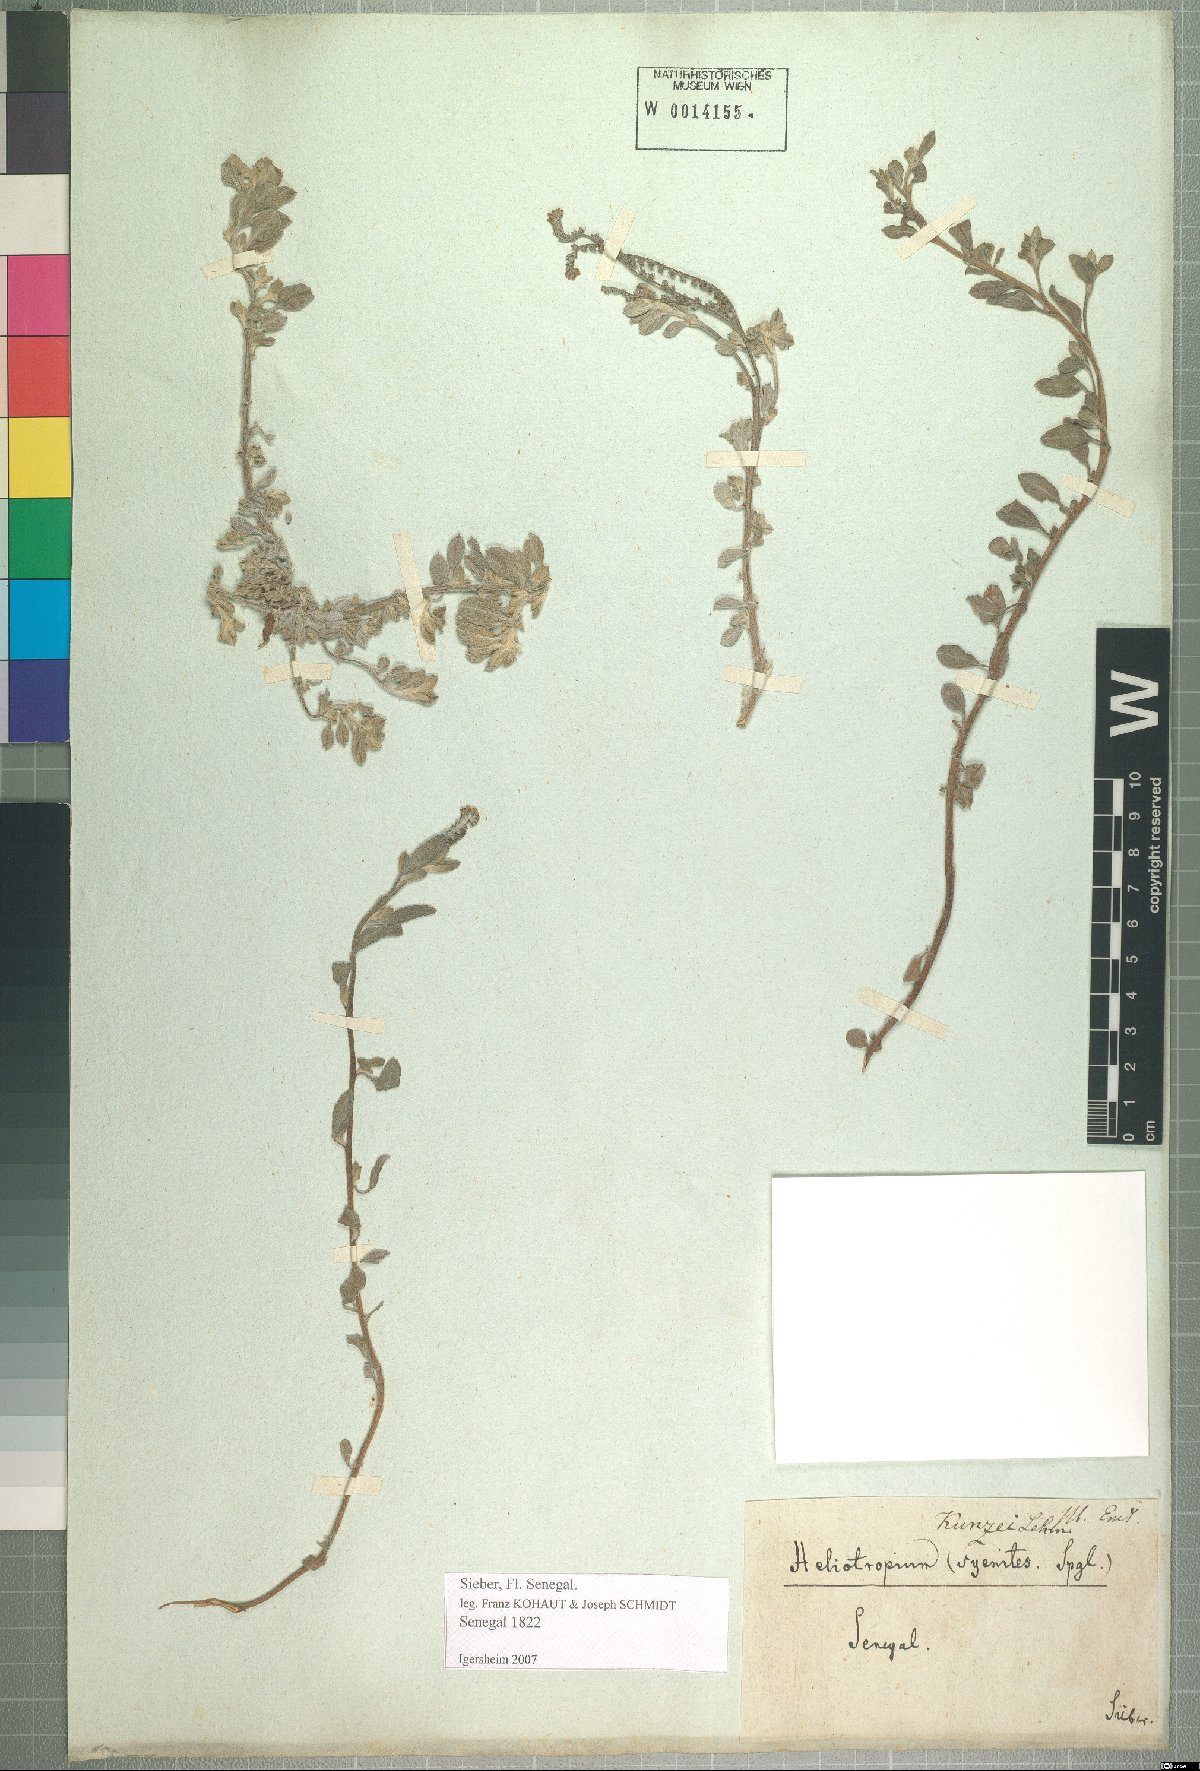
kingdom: Plantae
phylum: Tracheophyta
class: Magnoliopsida
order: Boraginales
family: Heliotropiaceae
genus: Euploca
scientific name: Euploca ovalifolia
